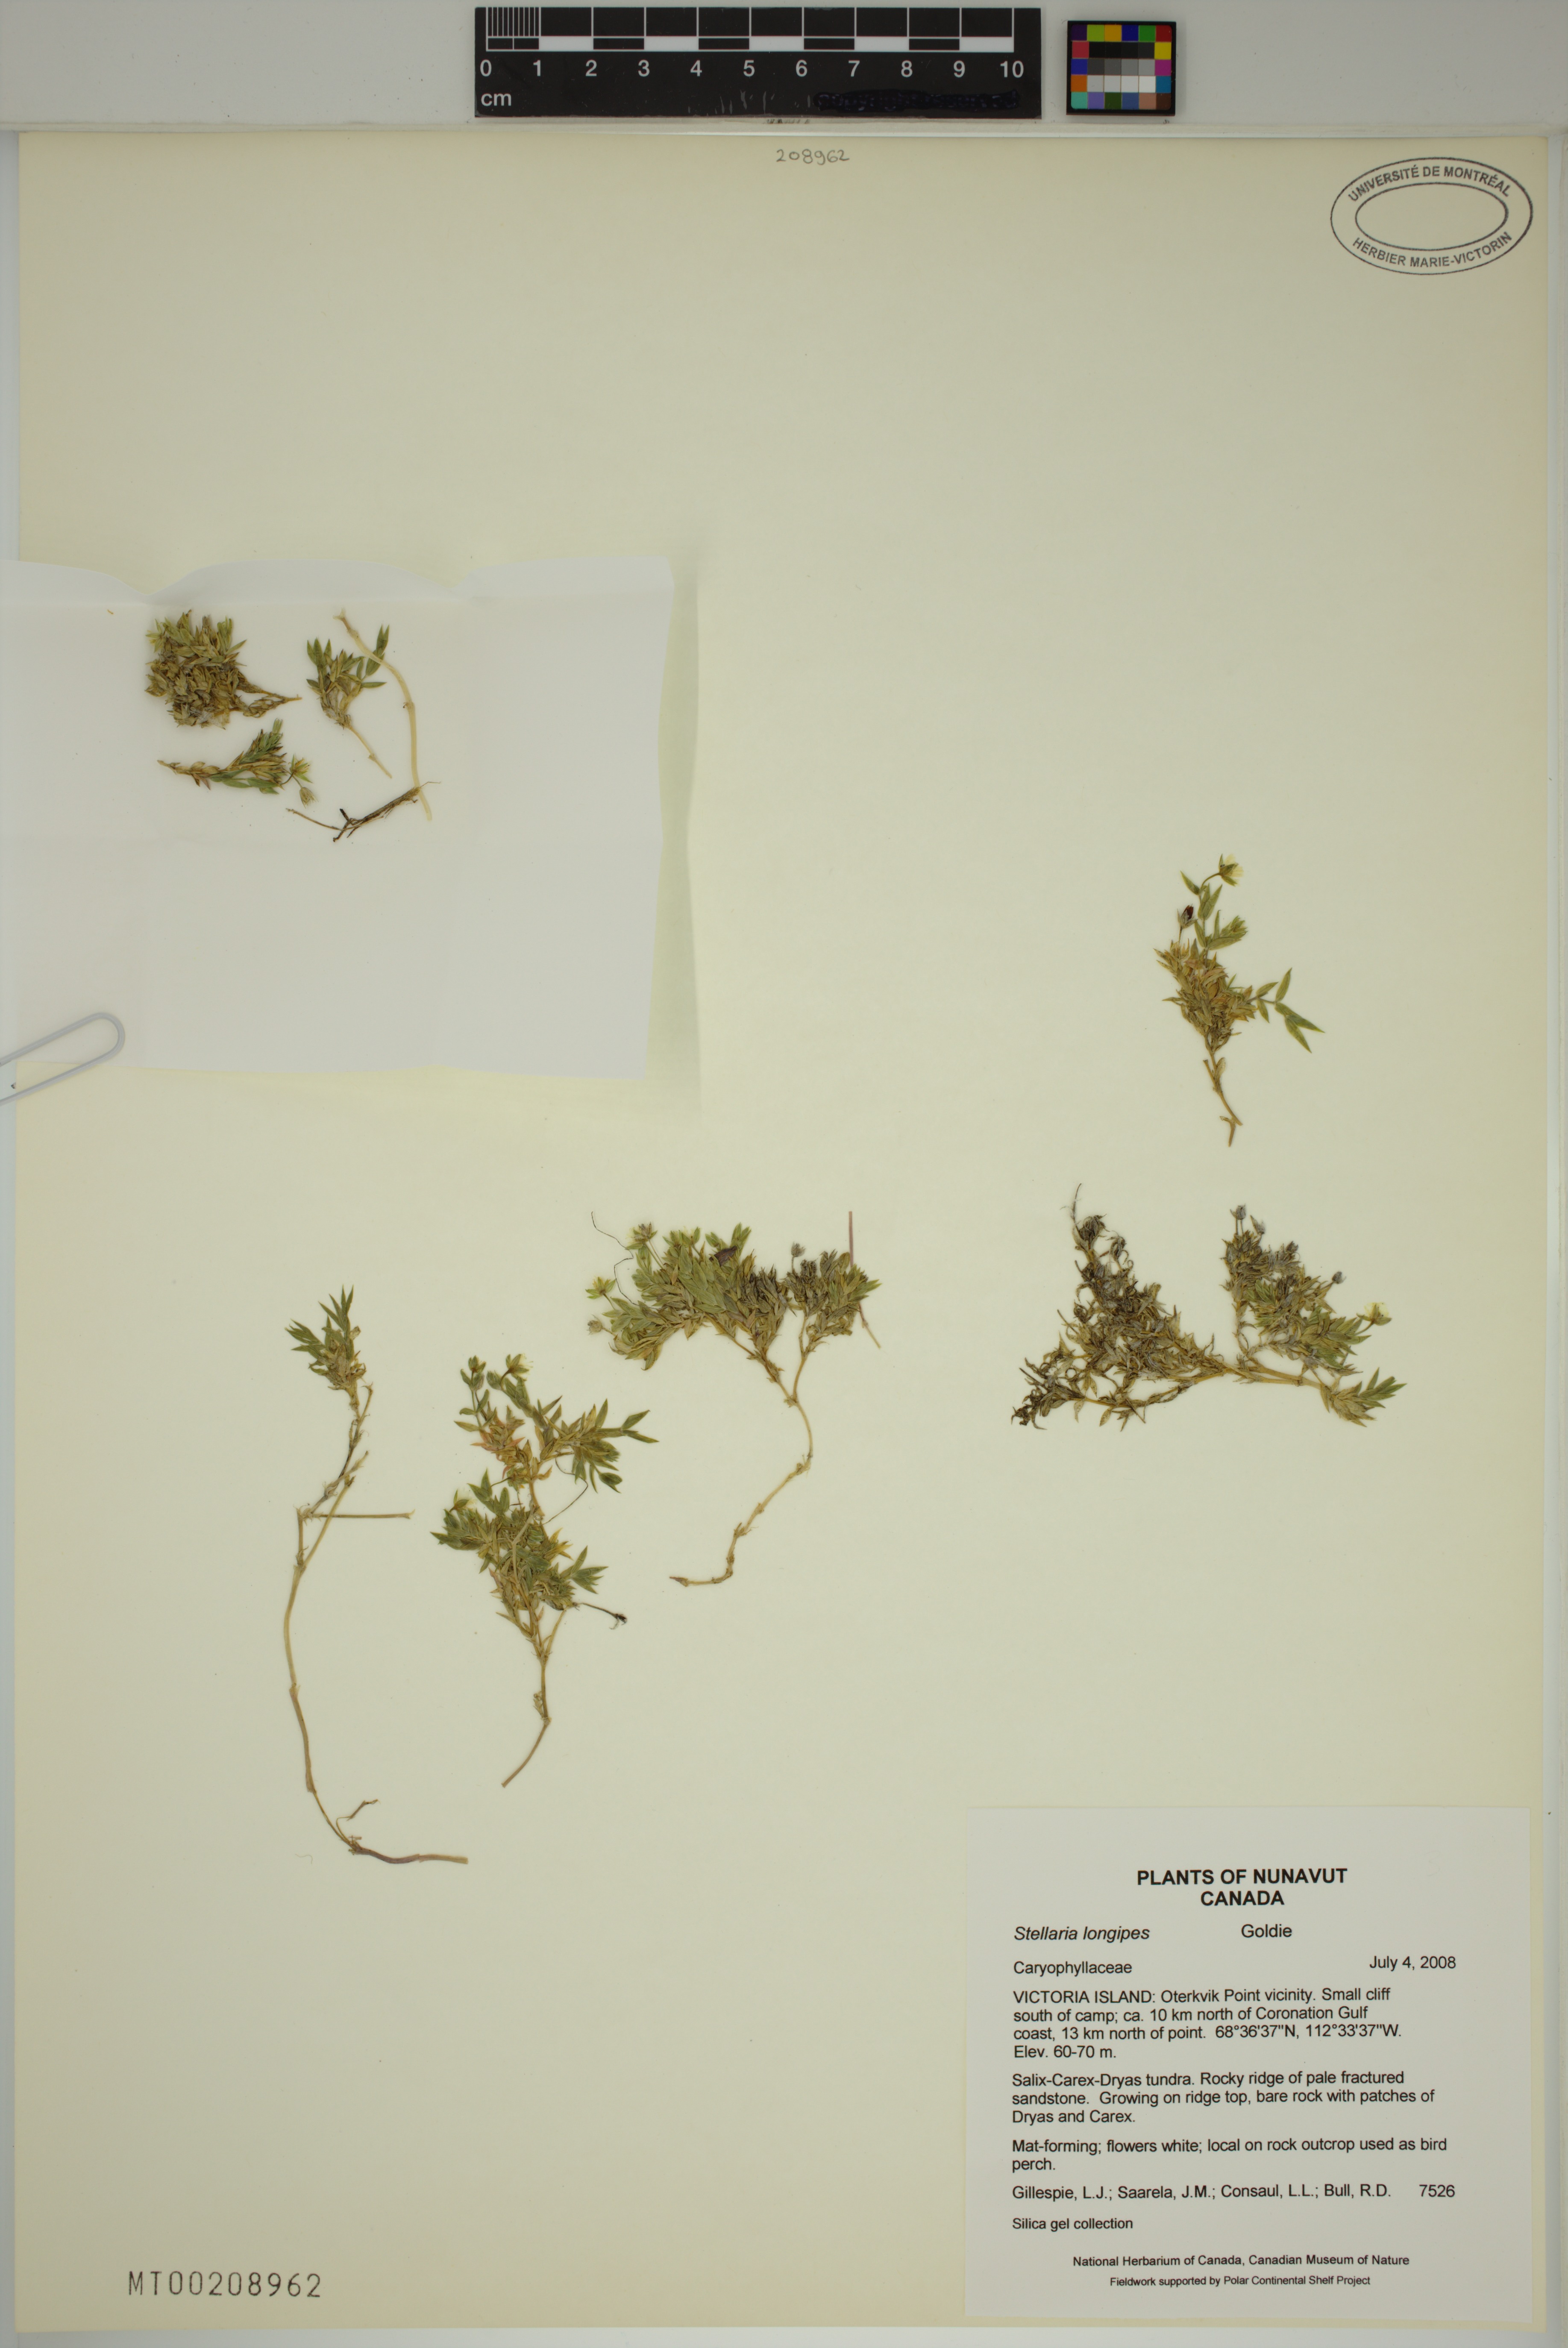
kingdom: Plantae
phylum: Tracheophyta
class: Magnoliopsida
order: Caryophyllales
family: Caryophyllaceae
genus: Stellaria
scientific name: Stellaria longipes
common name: Goldie's starwort
